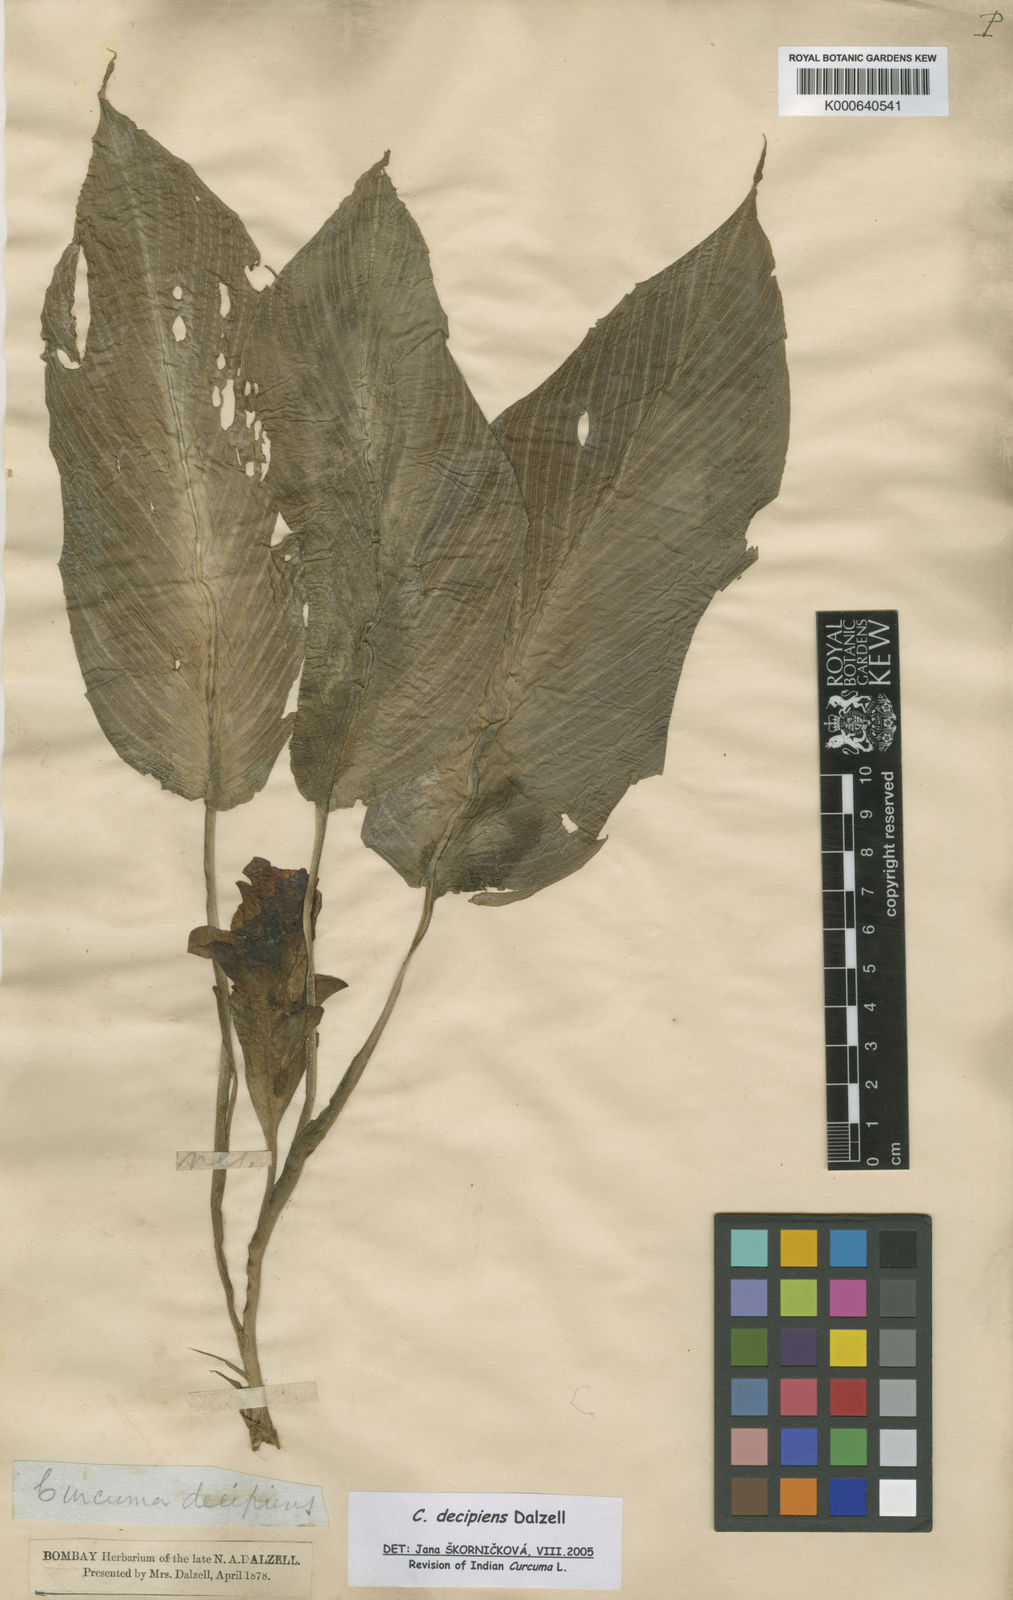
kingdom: Plantae
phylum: Tracheophyta
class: Liliopsida
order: Zingiberales
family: Zingiberaceae
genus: Curcuma
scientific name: Curcuma decipiens
